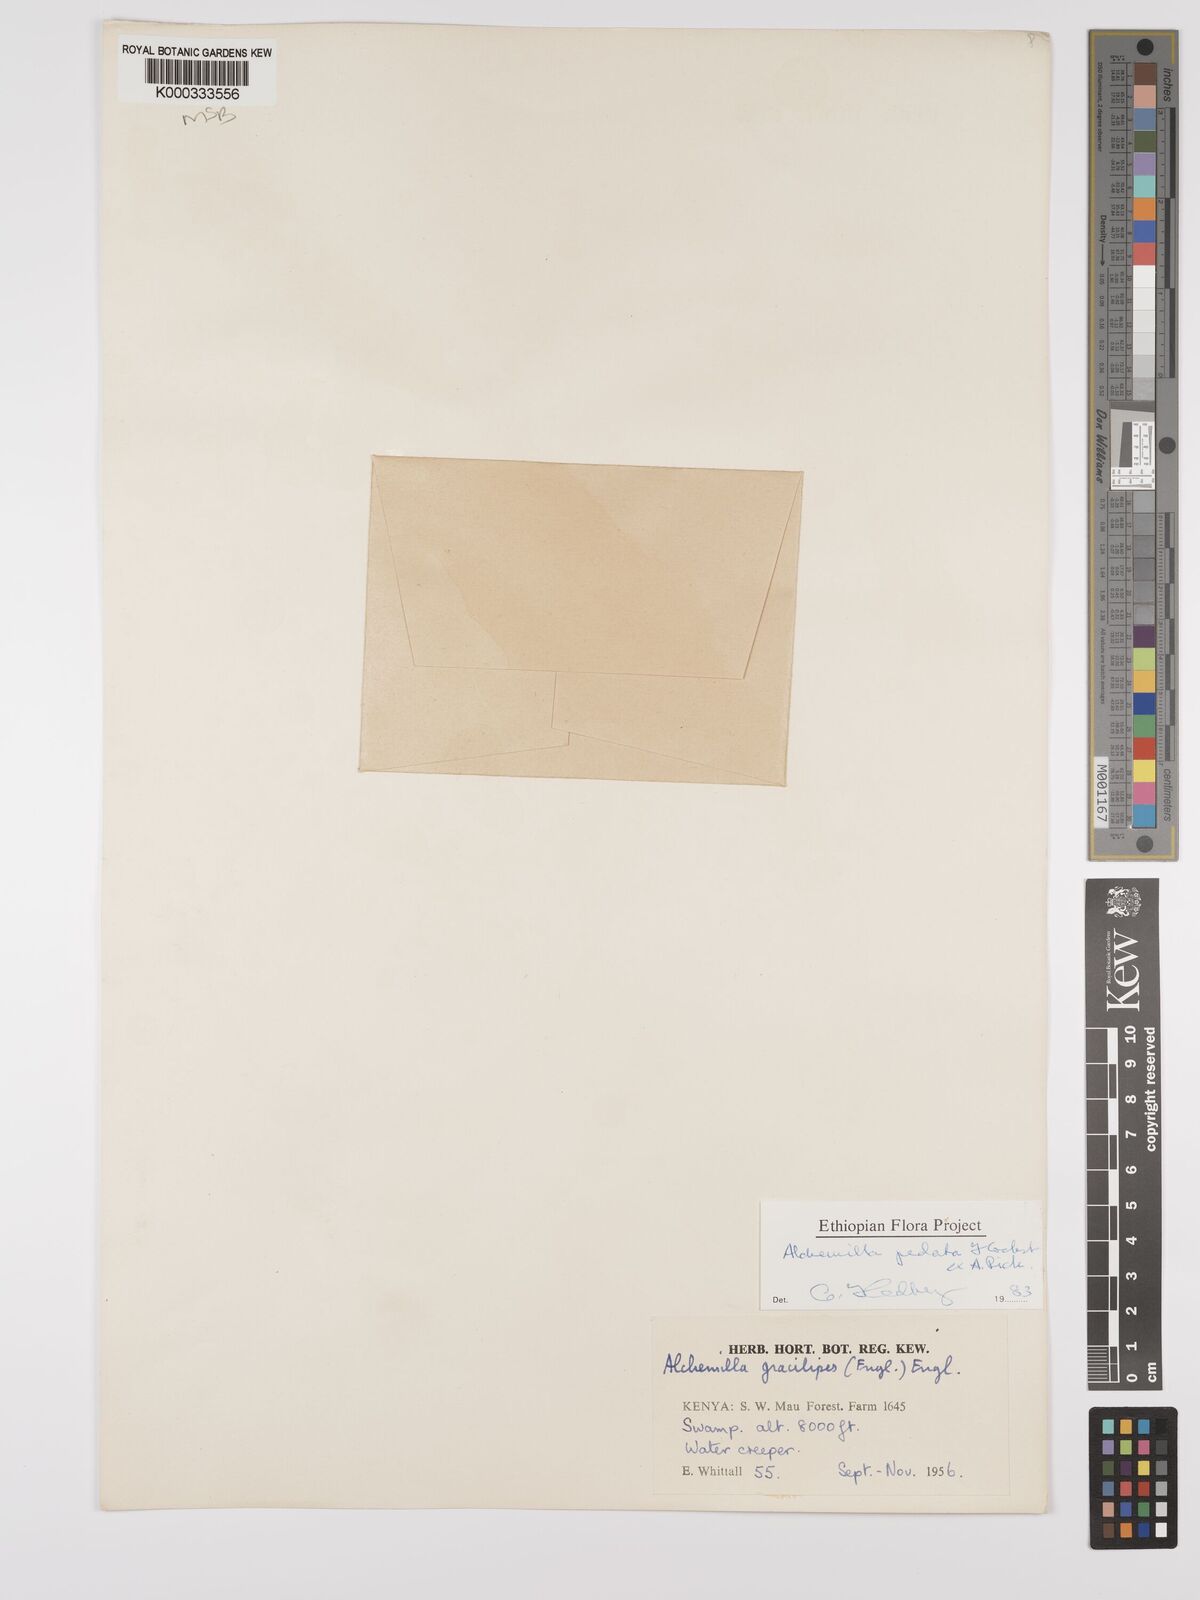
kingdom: Plantae
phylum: Tracheophyta
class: Magnoliopsida
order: Rosales
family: Rosaceae
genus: Alchemilla
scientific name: Alchemilla pedata
